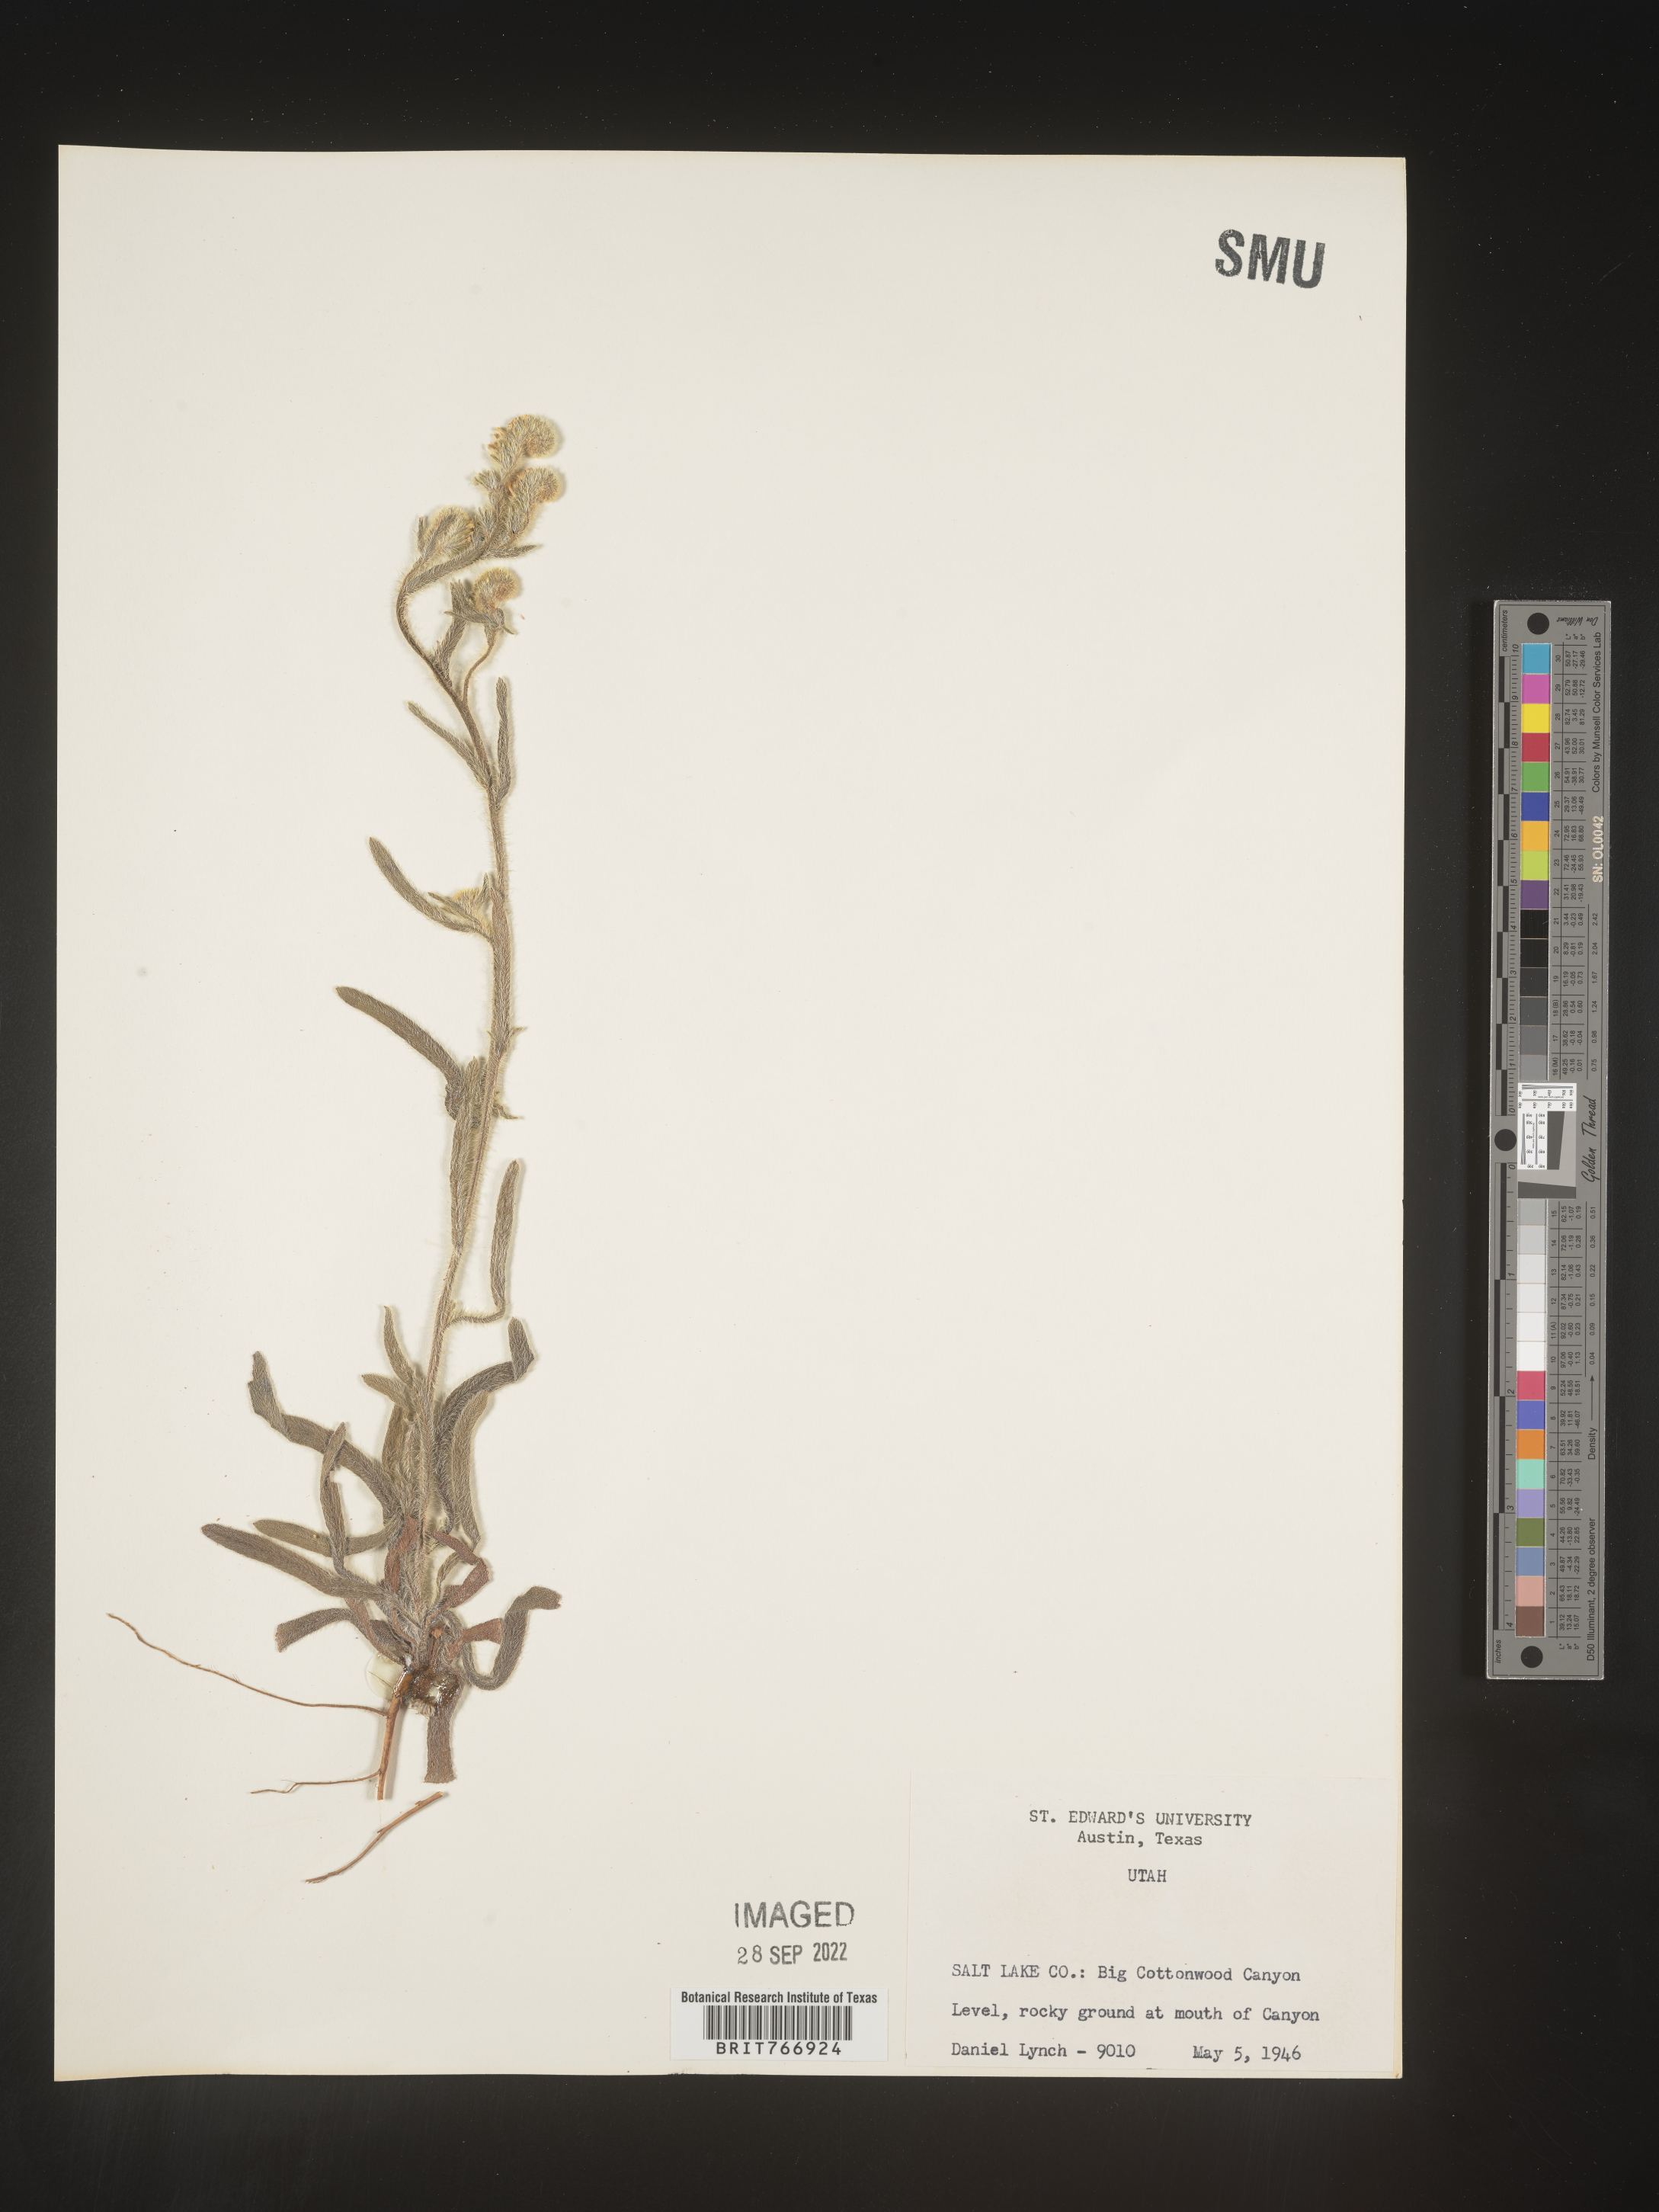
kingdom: Plantae
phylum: Tracheophyta
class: Magnoliopsida
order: Boraginales
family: Boraginaceae
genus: Cryptantha
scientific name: Cryptantha
